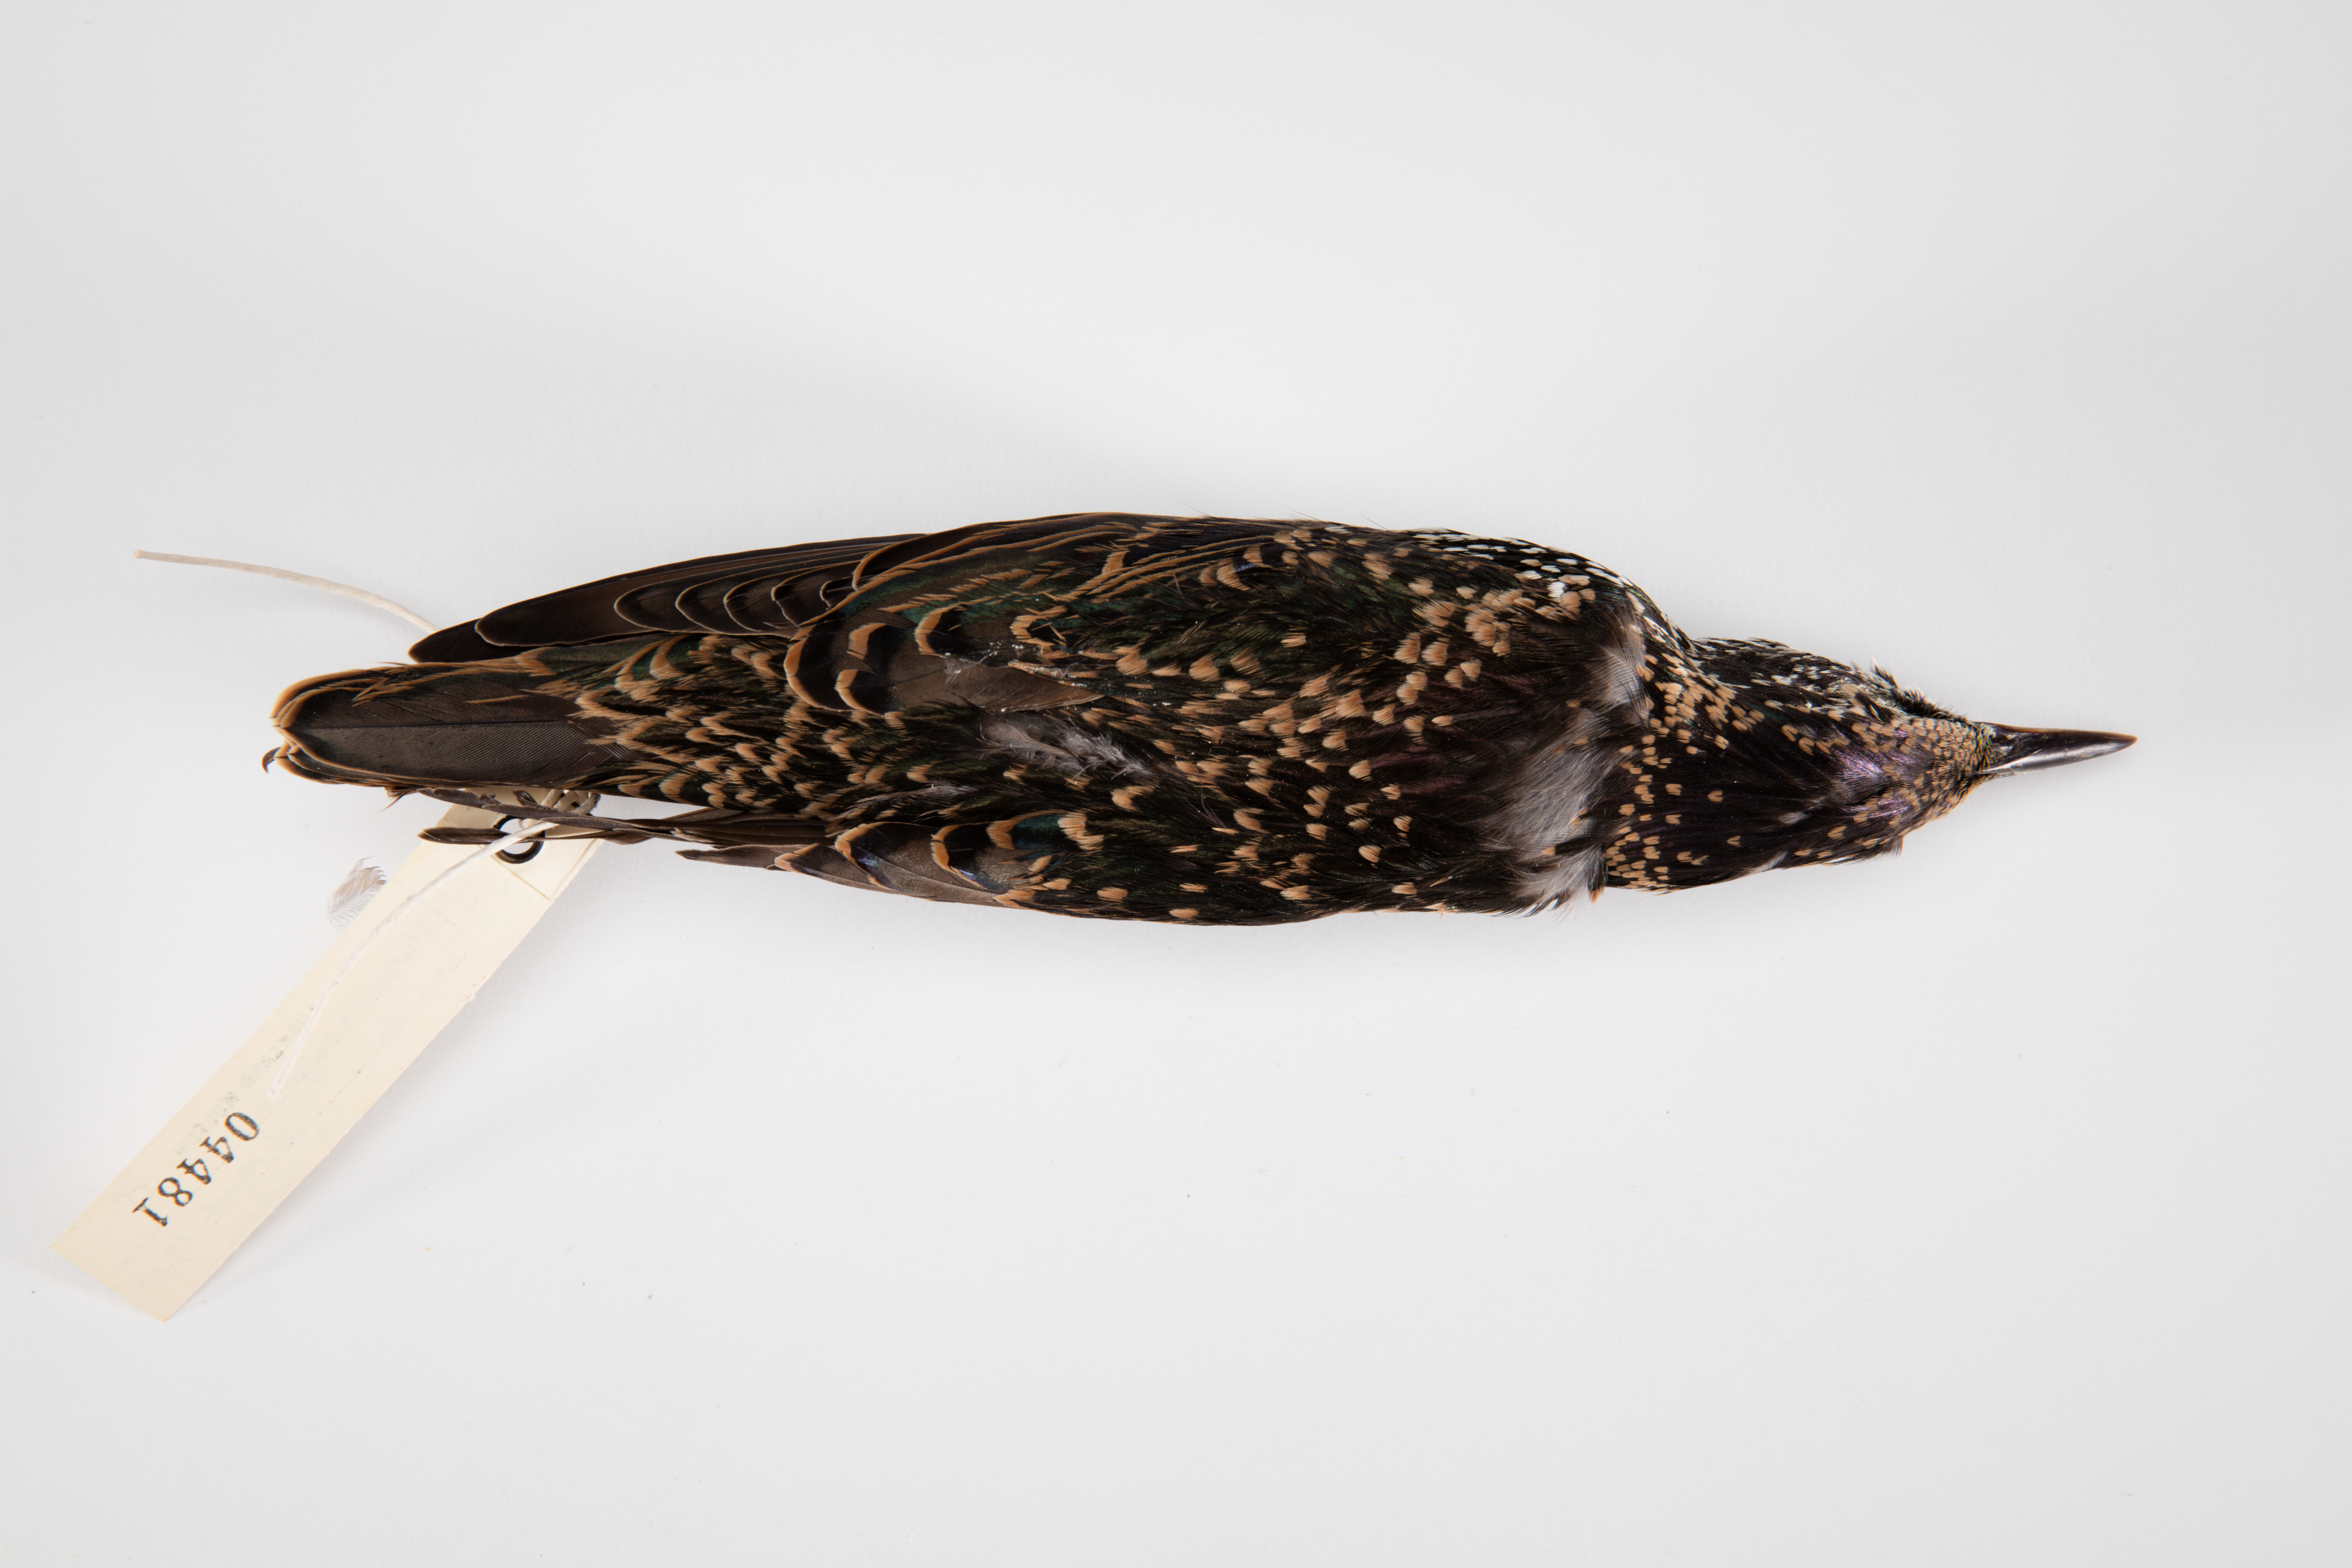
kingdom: Animalia
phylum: Chordata
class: Aves
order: Passeriformes
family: Sturnidae
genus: Sturnus
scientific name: Sturnus vulgaris
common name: Common starling
